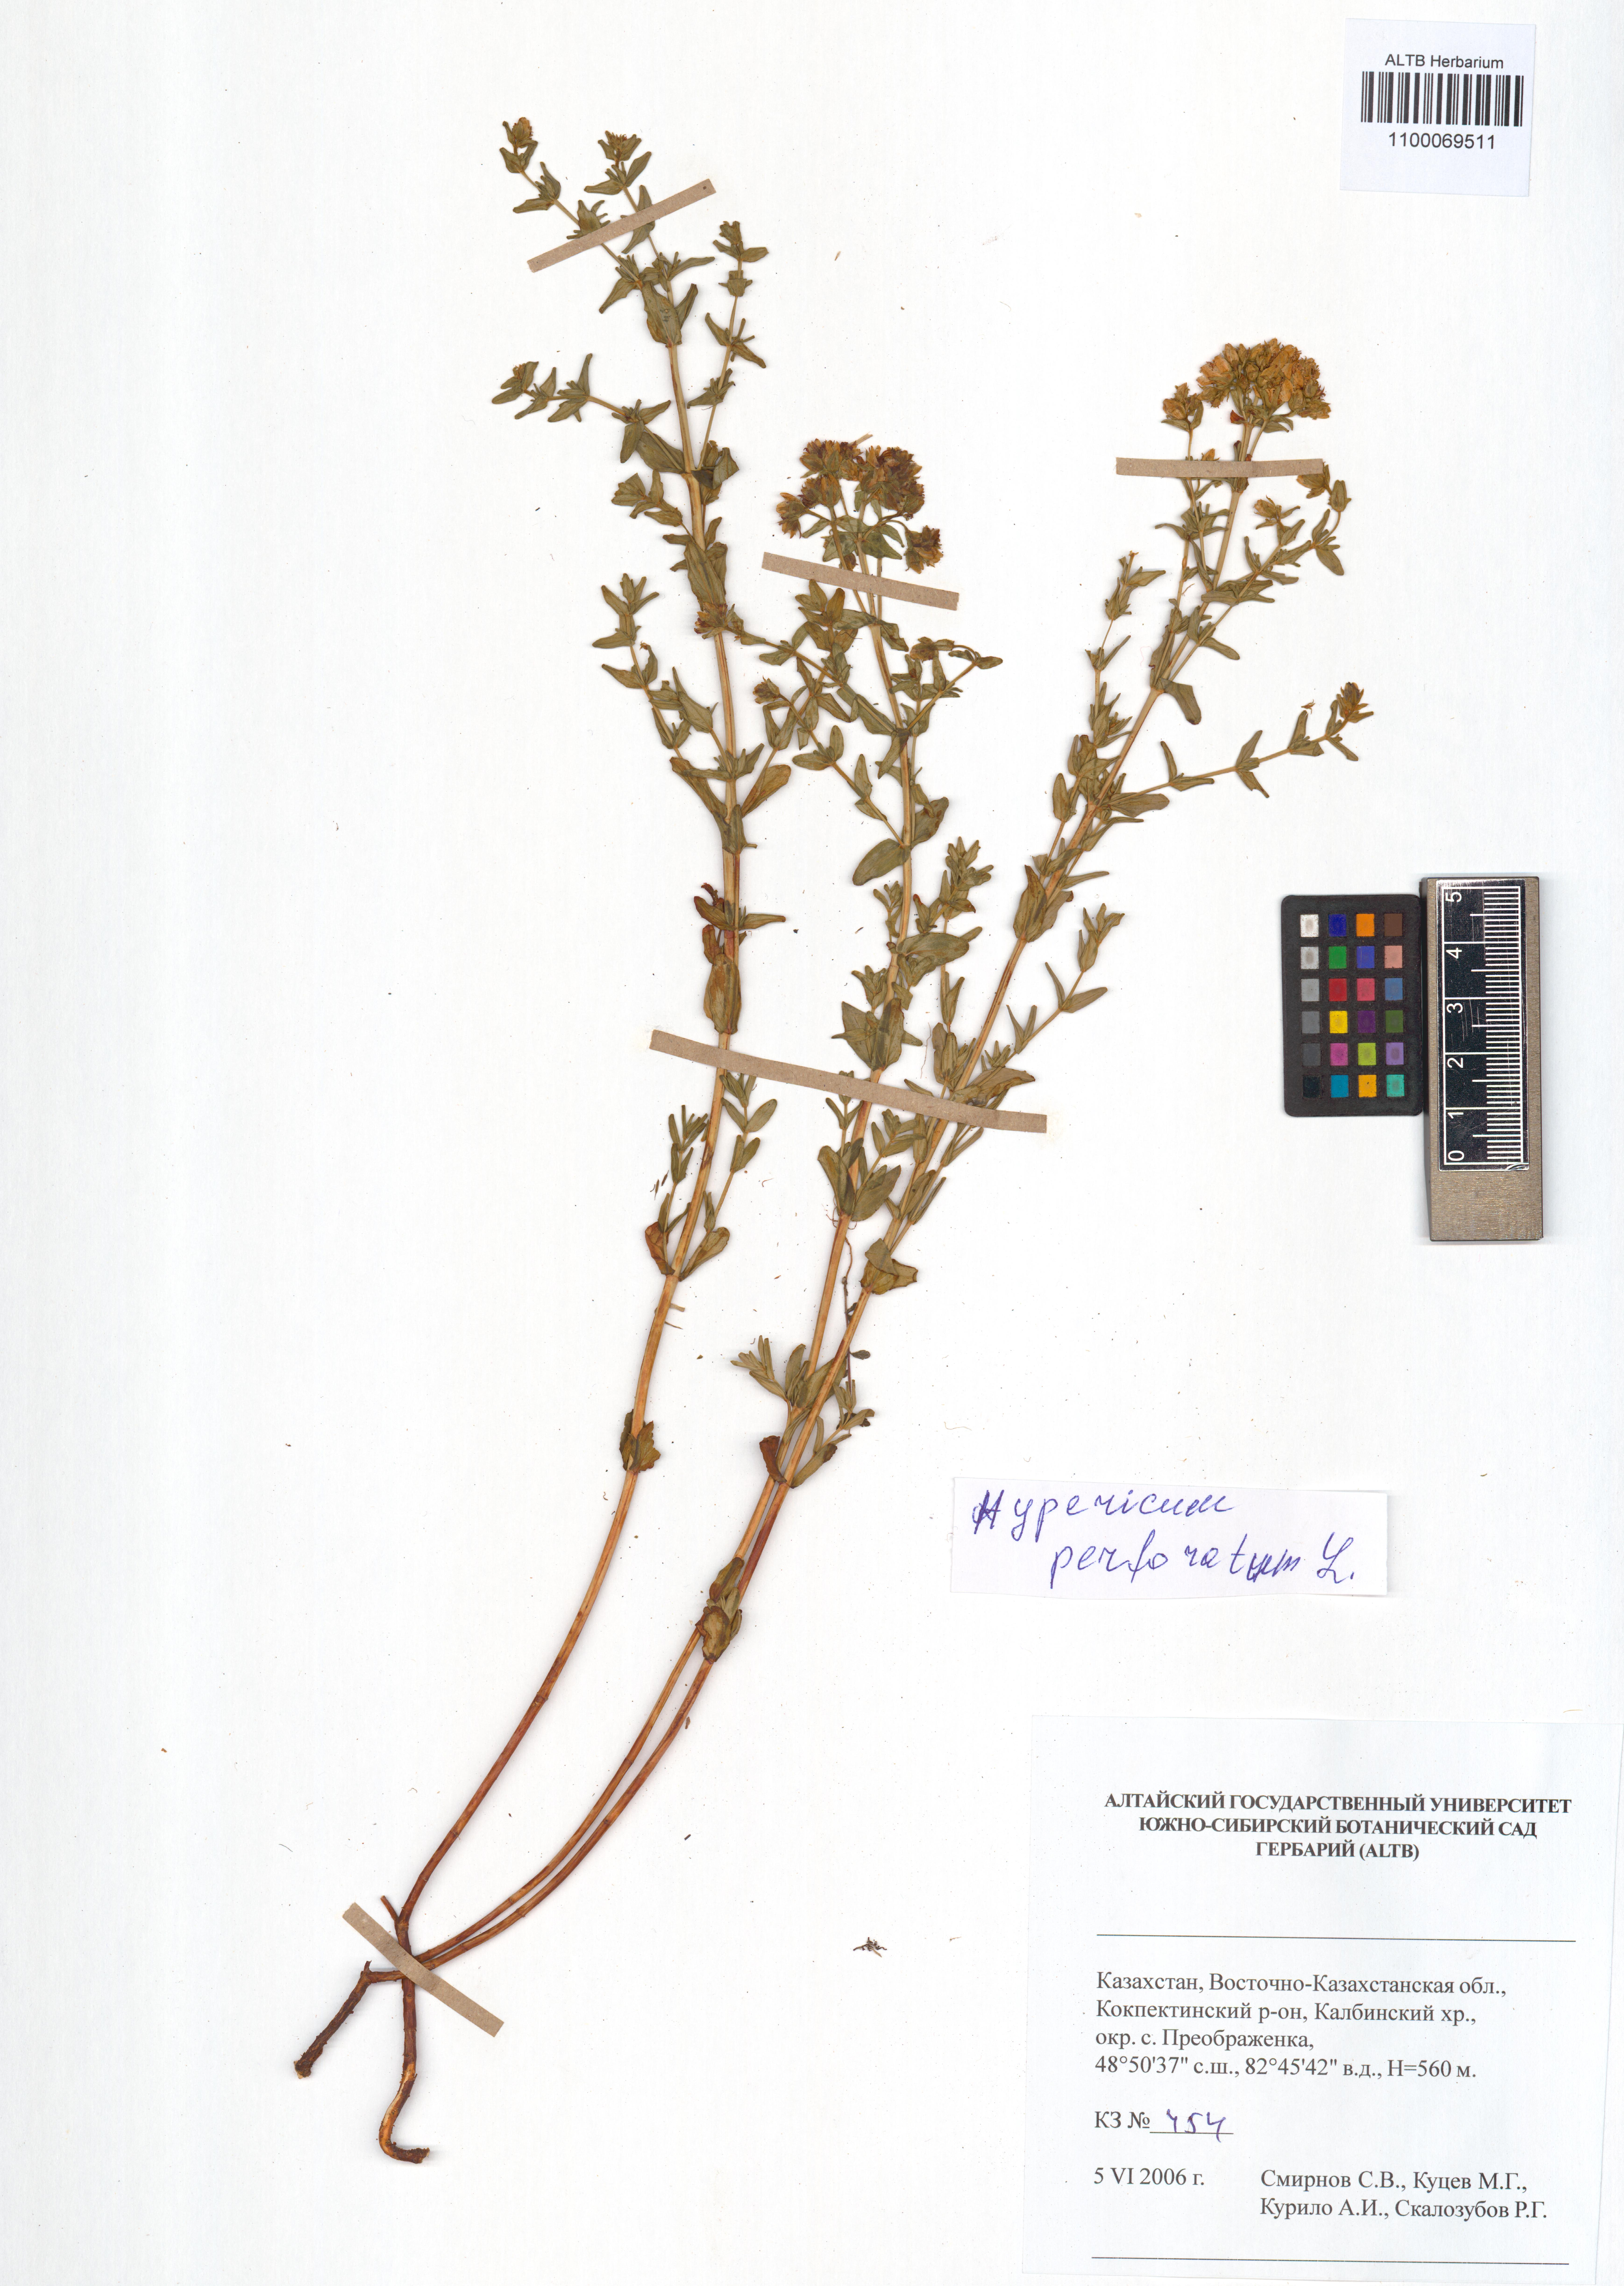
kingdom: Plantae
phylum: Tracheophyta
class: Magnoliopsida
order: Malpighiales
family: Hypericaceae
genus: Hypericum
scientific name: Hypericum perforatum
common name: Common st. johnswort
